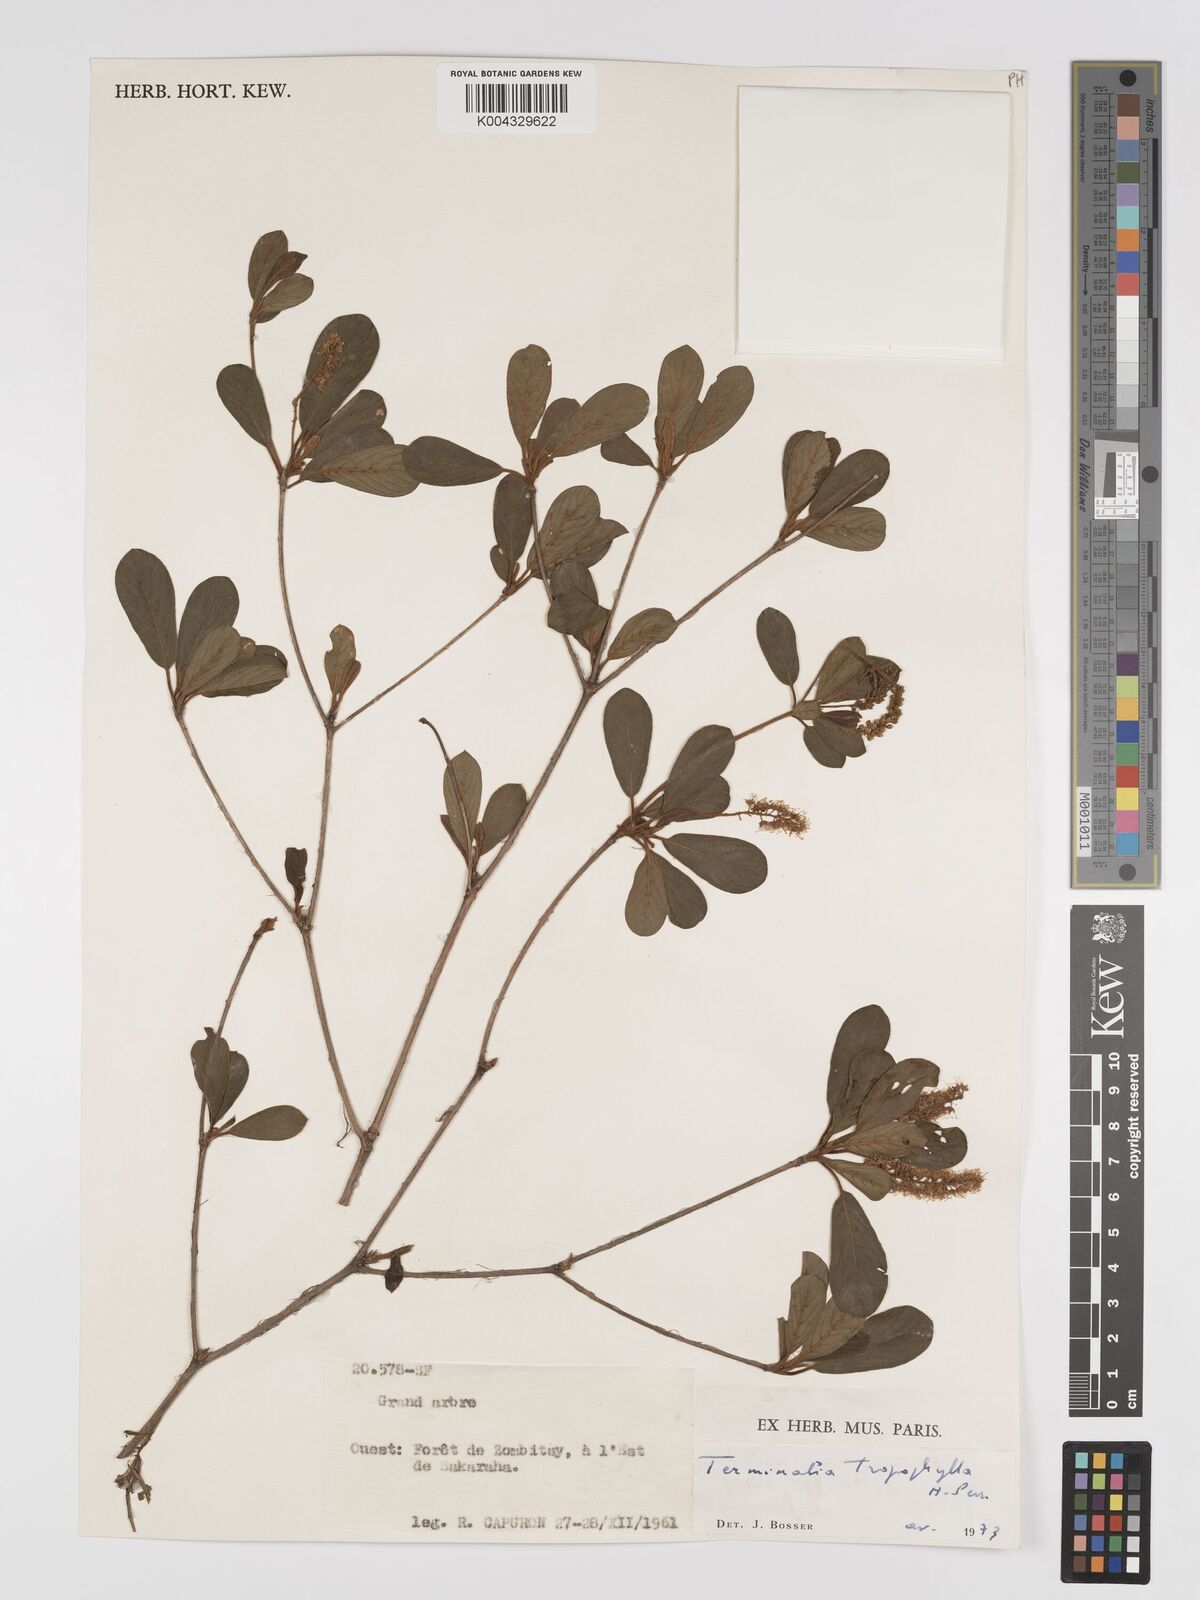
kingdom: Plantae
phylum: Tracheophyta
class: Magnoliopsida
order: Myrtales
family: Combretaceae
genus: Terminalia
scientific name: Terminalia tropophylla
